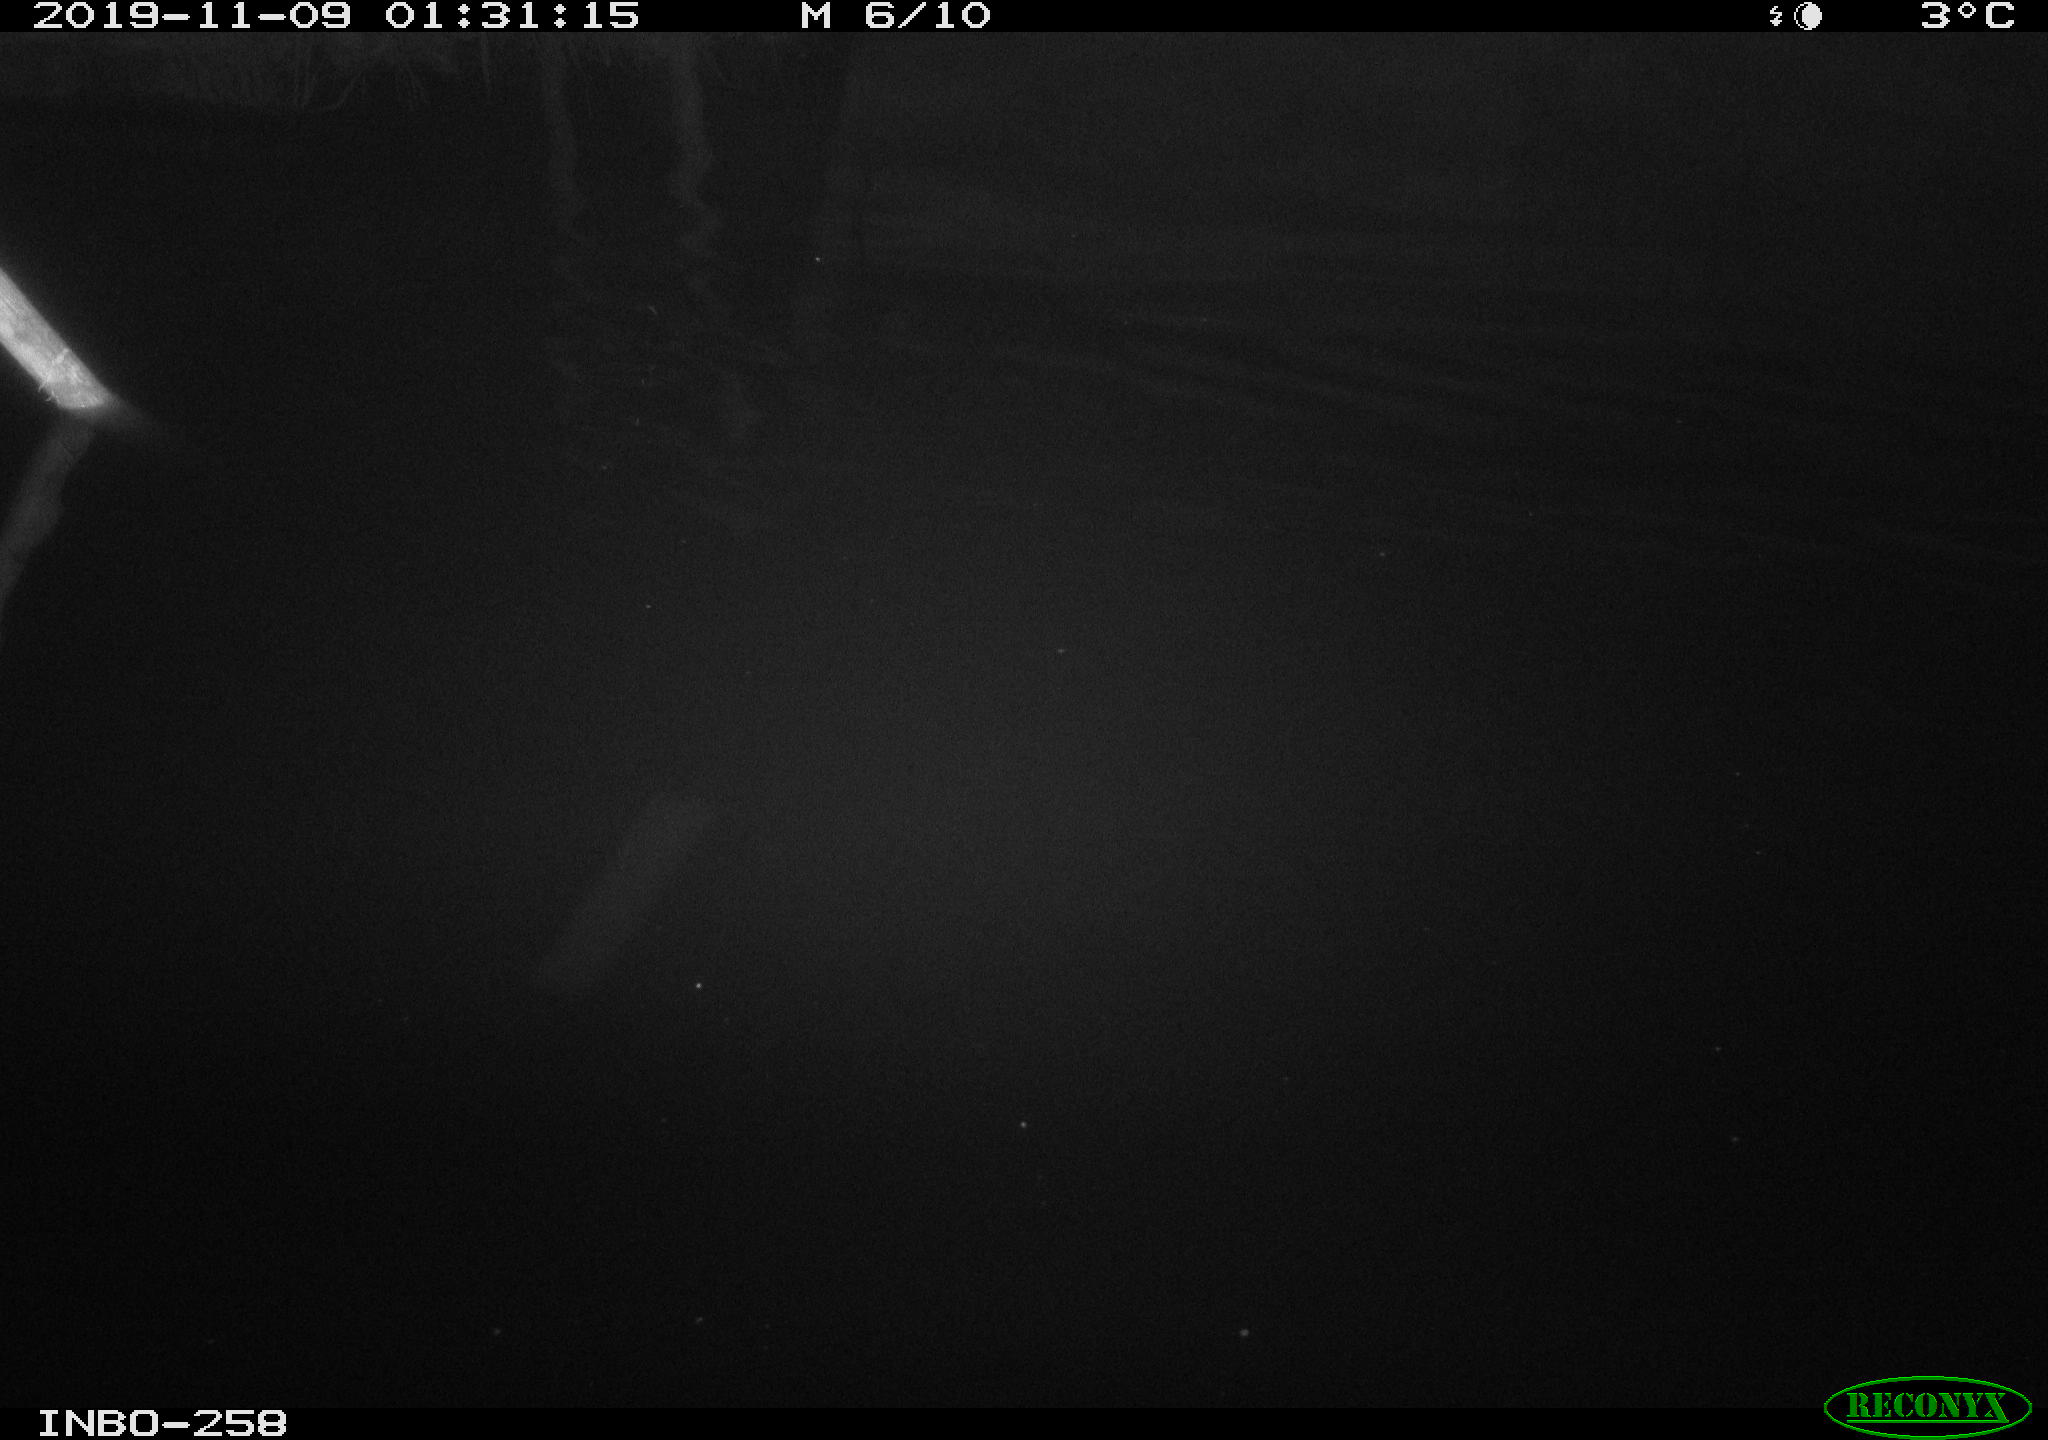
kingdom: Animalia
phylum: Chordata
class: Aves
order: Anseriformes
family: Anatidae
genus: Anas
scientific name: Anas platyrhynchos
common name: Mallard
